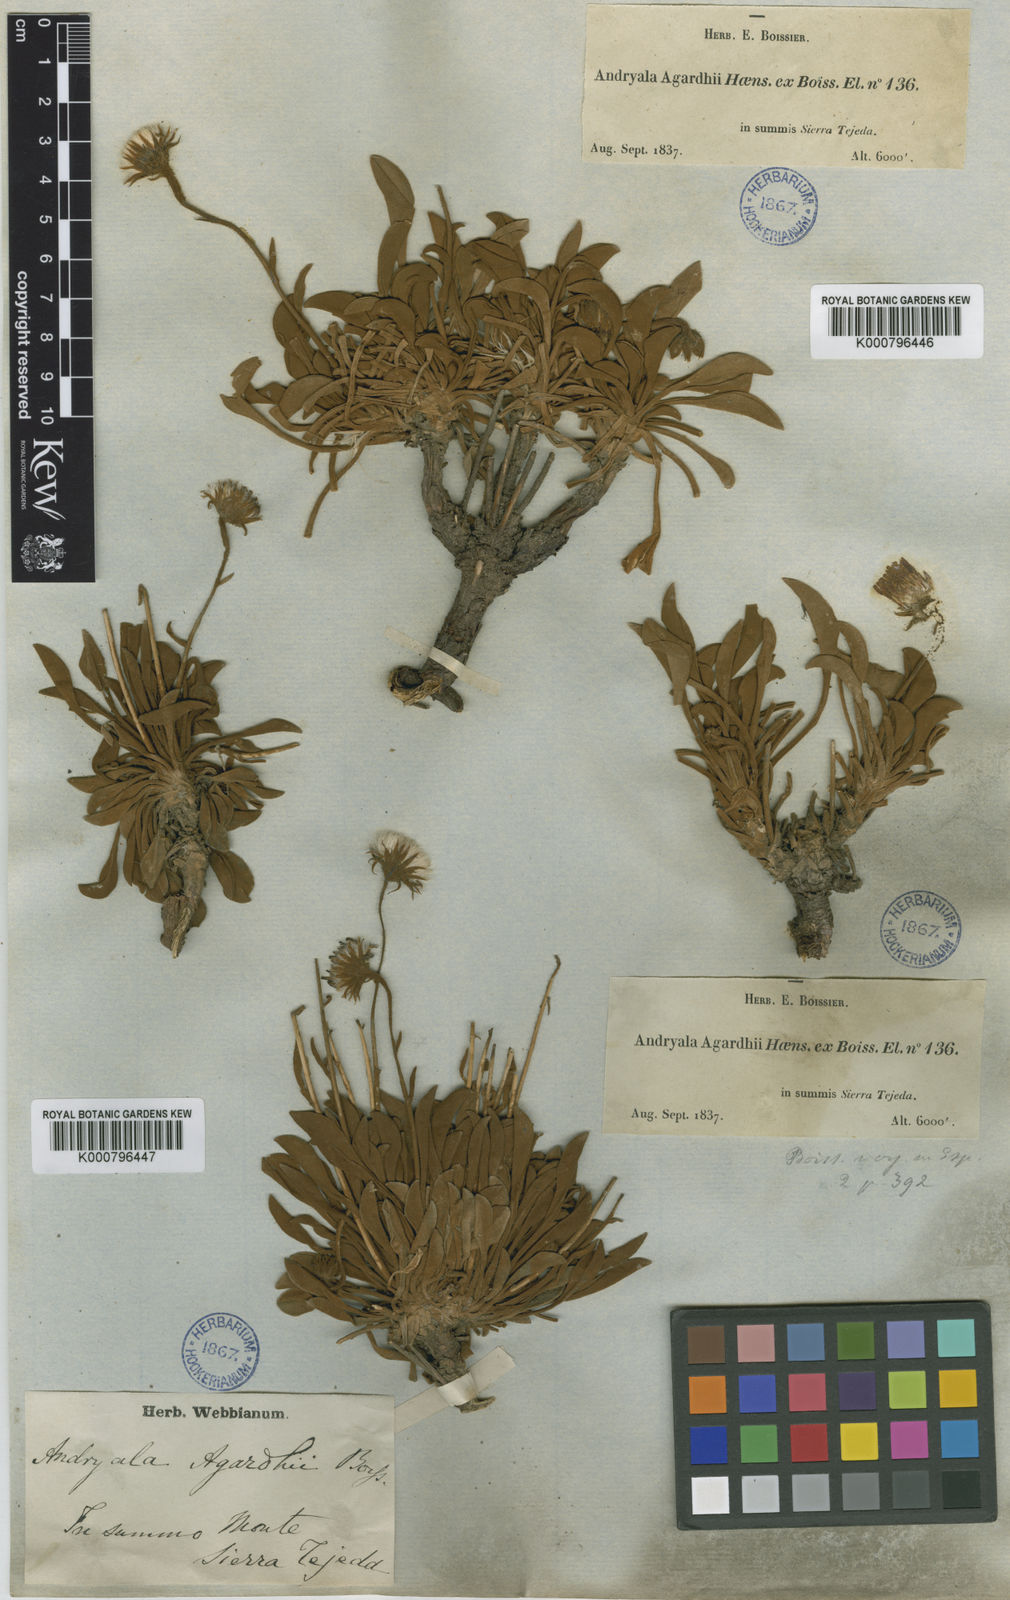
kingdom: Plantae
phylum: Tracheophyta
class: Magnoliopsida
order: Asterales
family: Asteraceae
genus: Andryala
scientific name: Andryala agardhii
